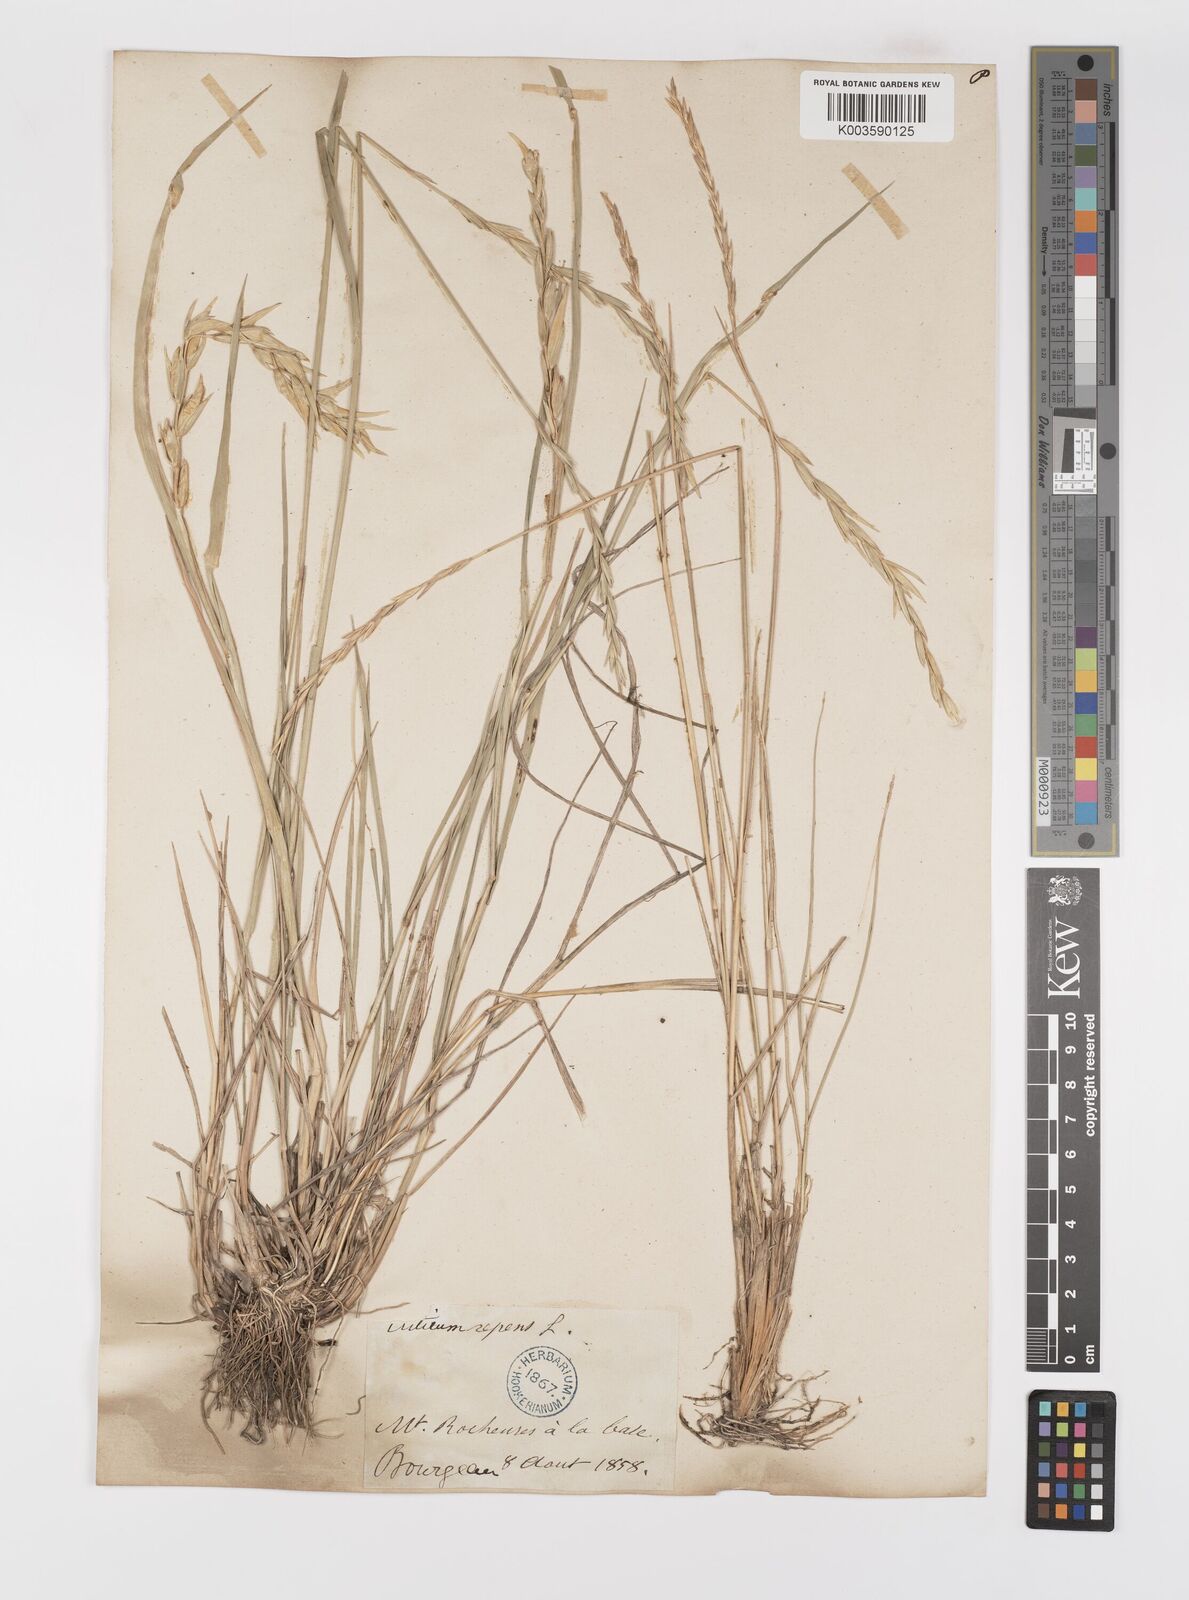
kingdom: Plantae
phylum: Tracheophyta
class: Liliopsida
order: Poales
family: Poaceae
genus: Elymus
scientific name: Elymus repens
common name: Quackgrass
